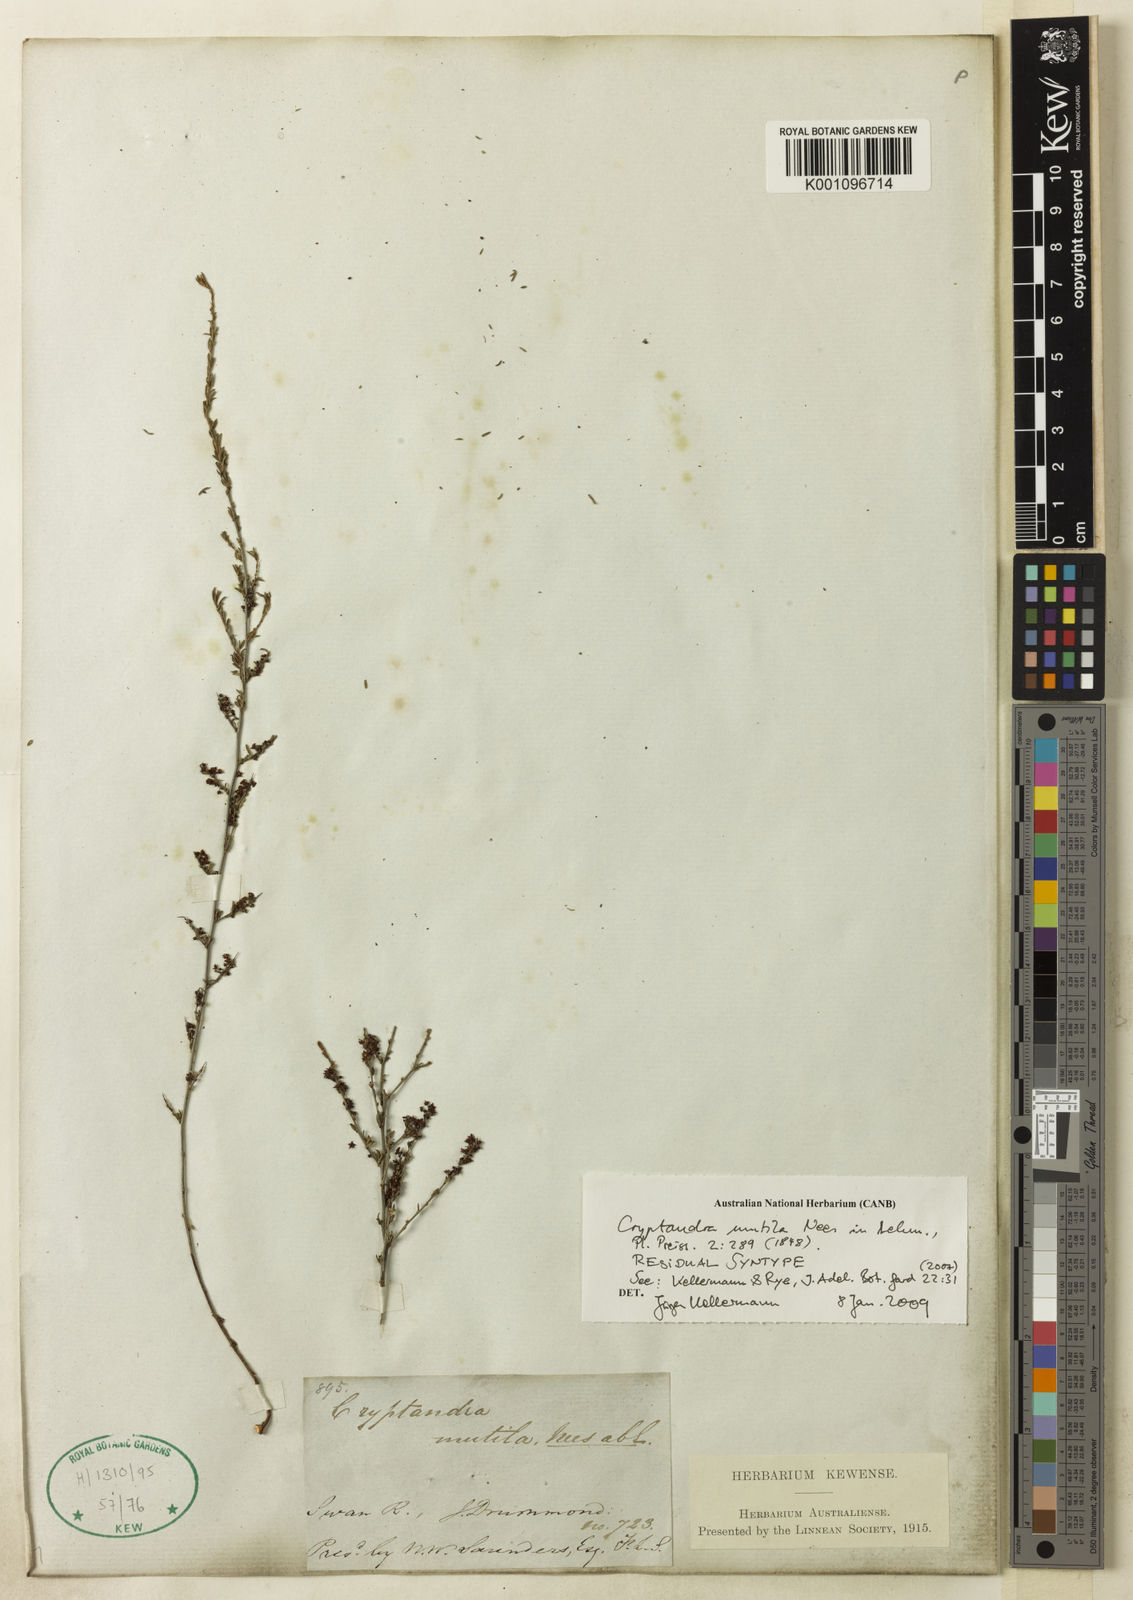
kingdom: Plantae
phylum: Tracheophyta
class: Magnoliopsida
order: Rosales
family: Rhamnaceae
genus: Cryptandra
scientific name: Cryptandra mutila
